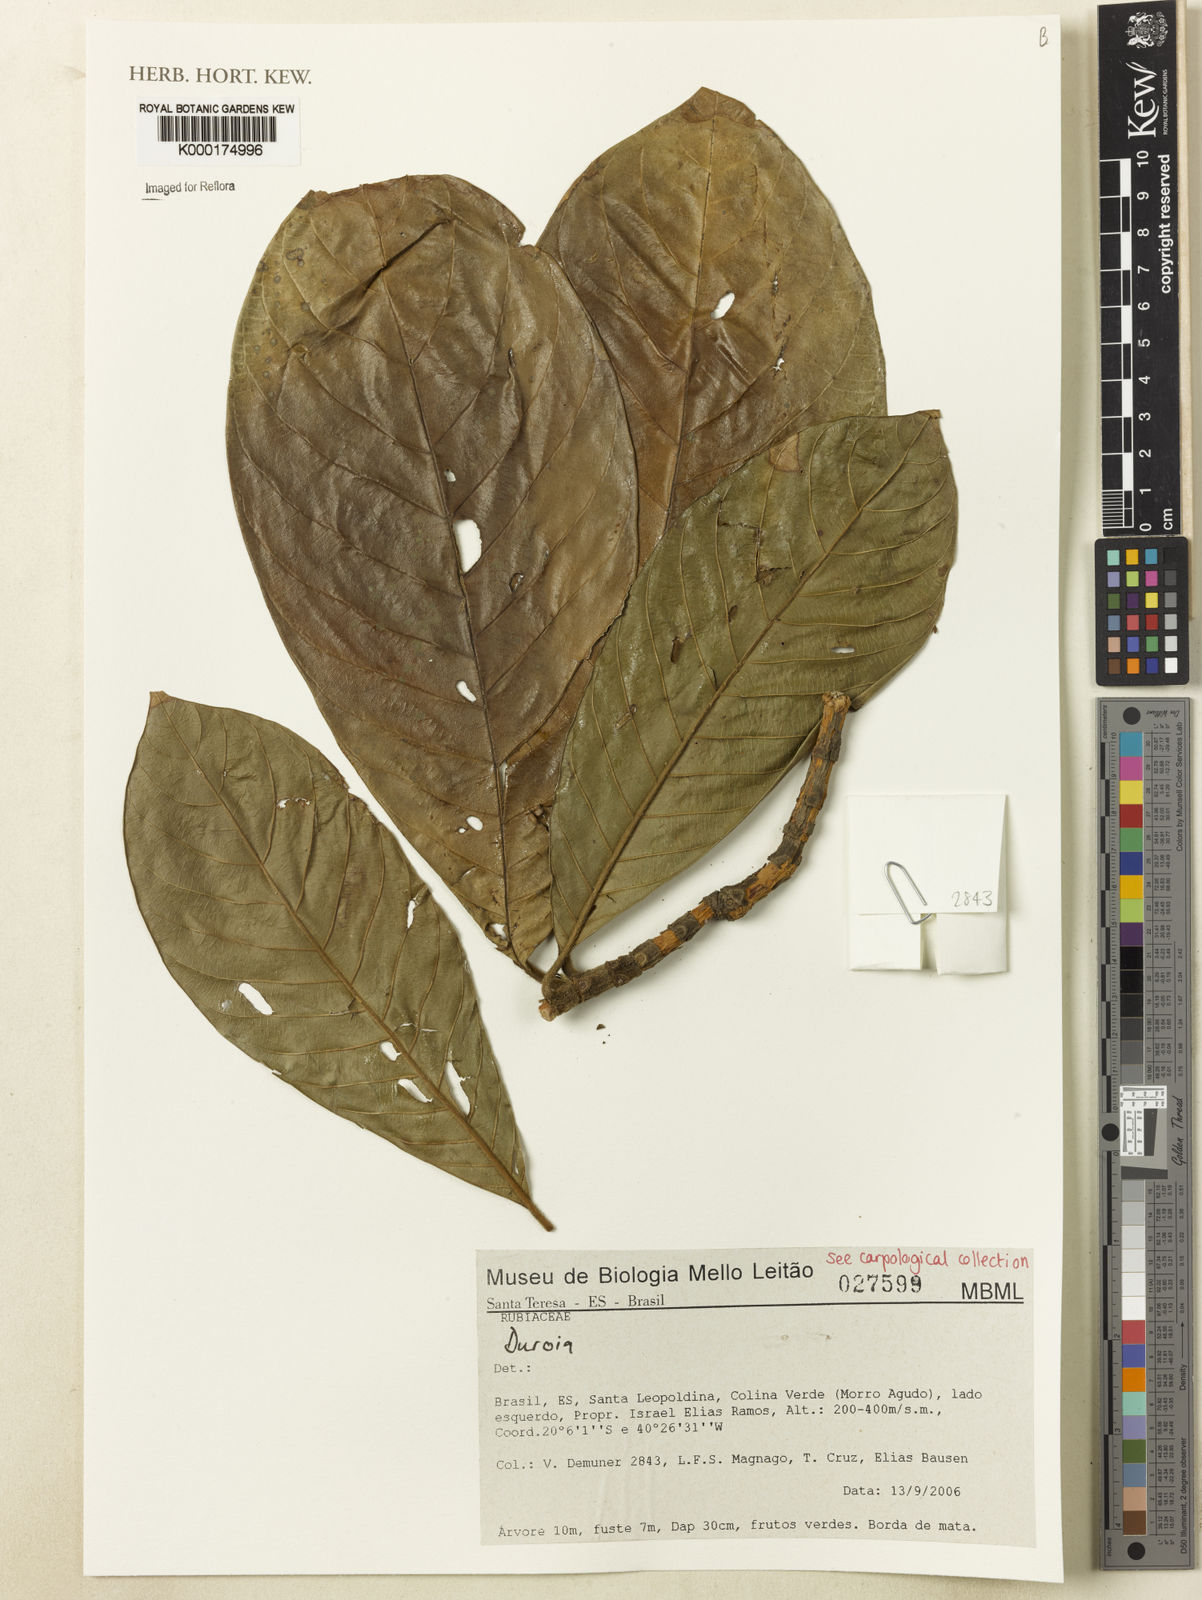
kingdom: Plantae
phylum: Tracheophyta
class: Magnoliopsida
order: Gentianales
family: Rubiaceae
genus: Duroia
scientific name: Duroia
